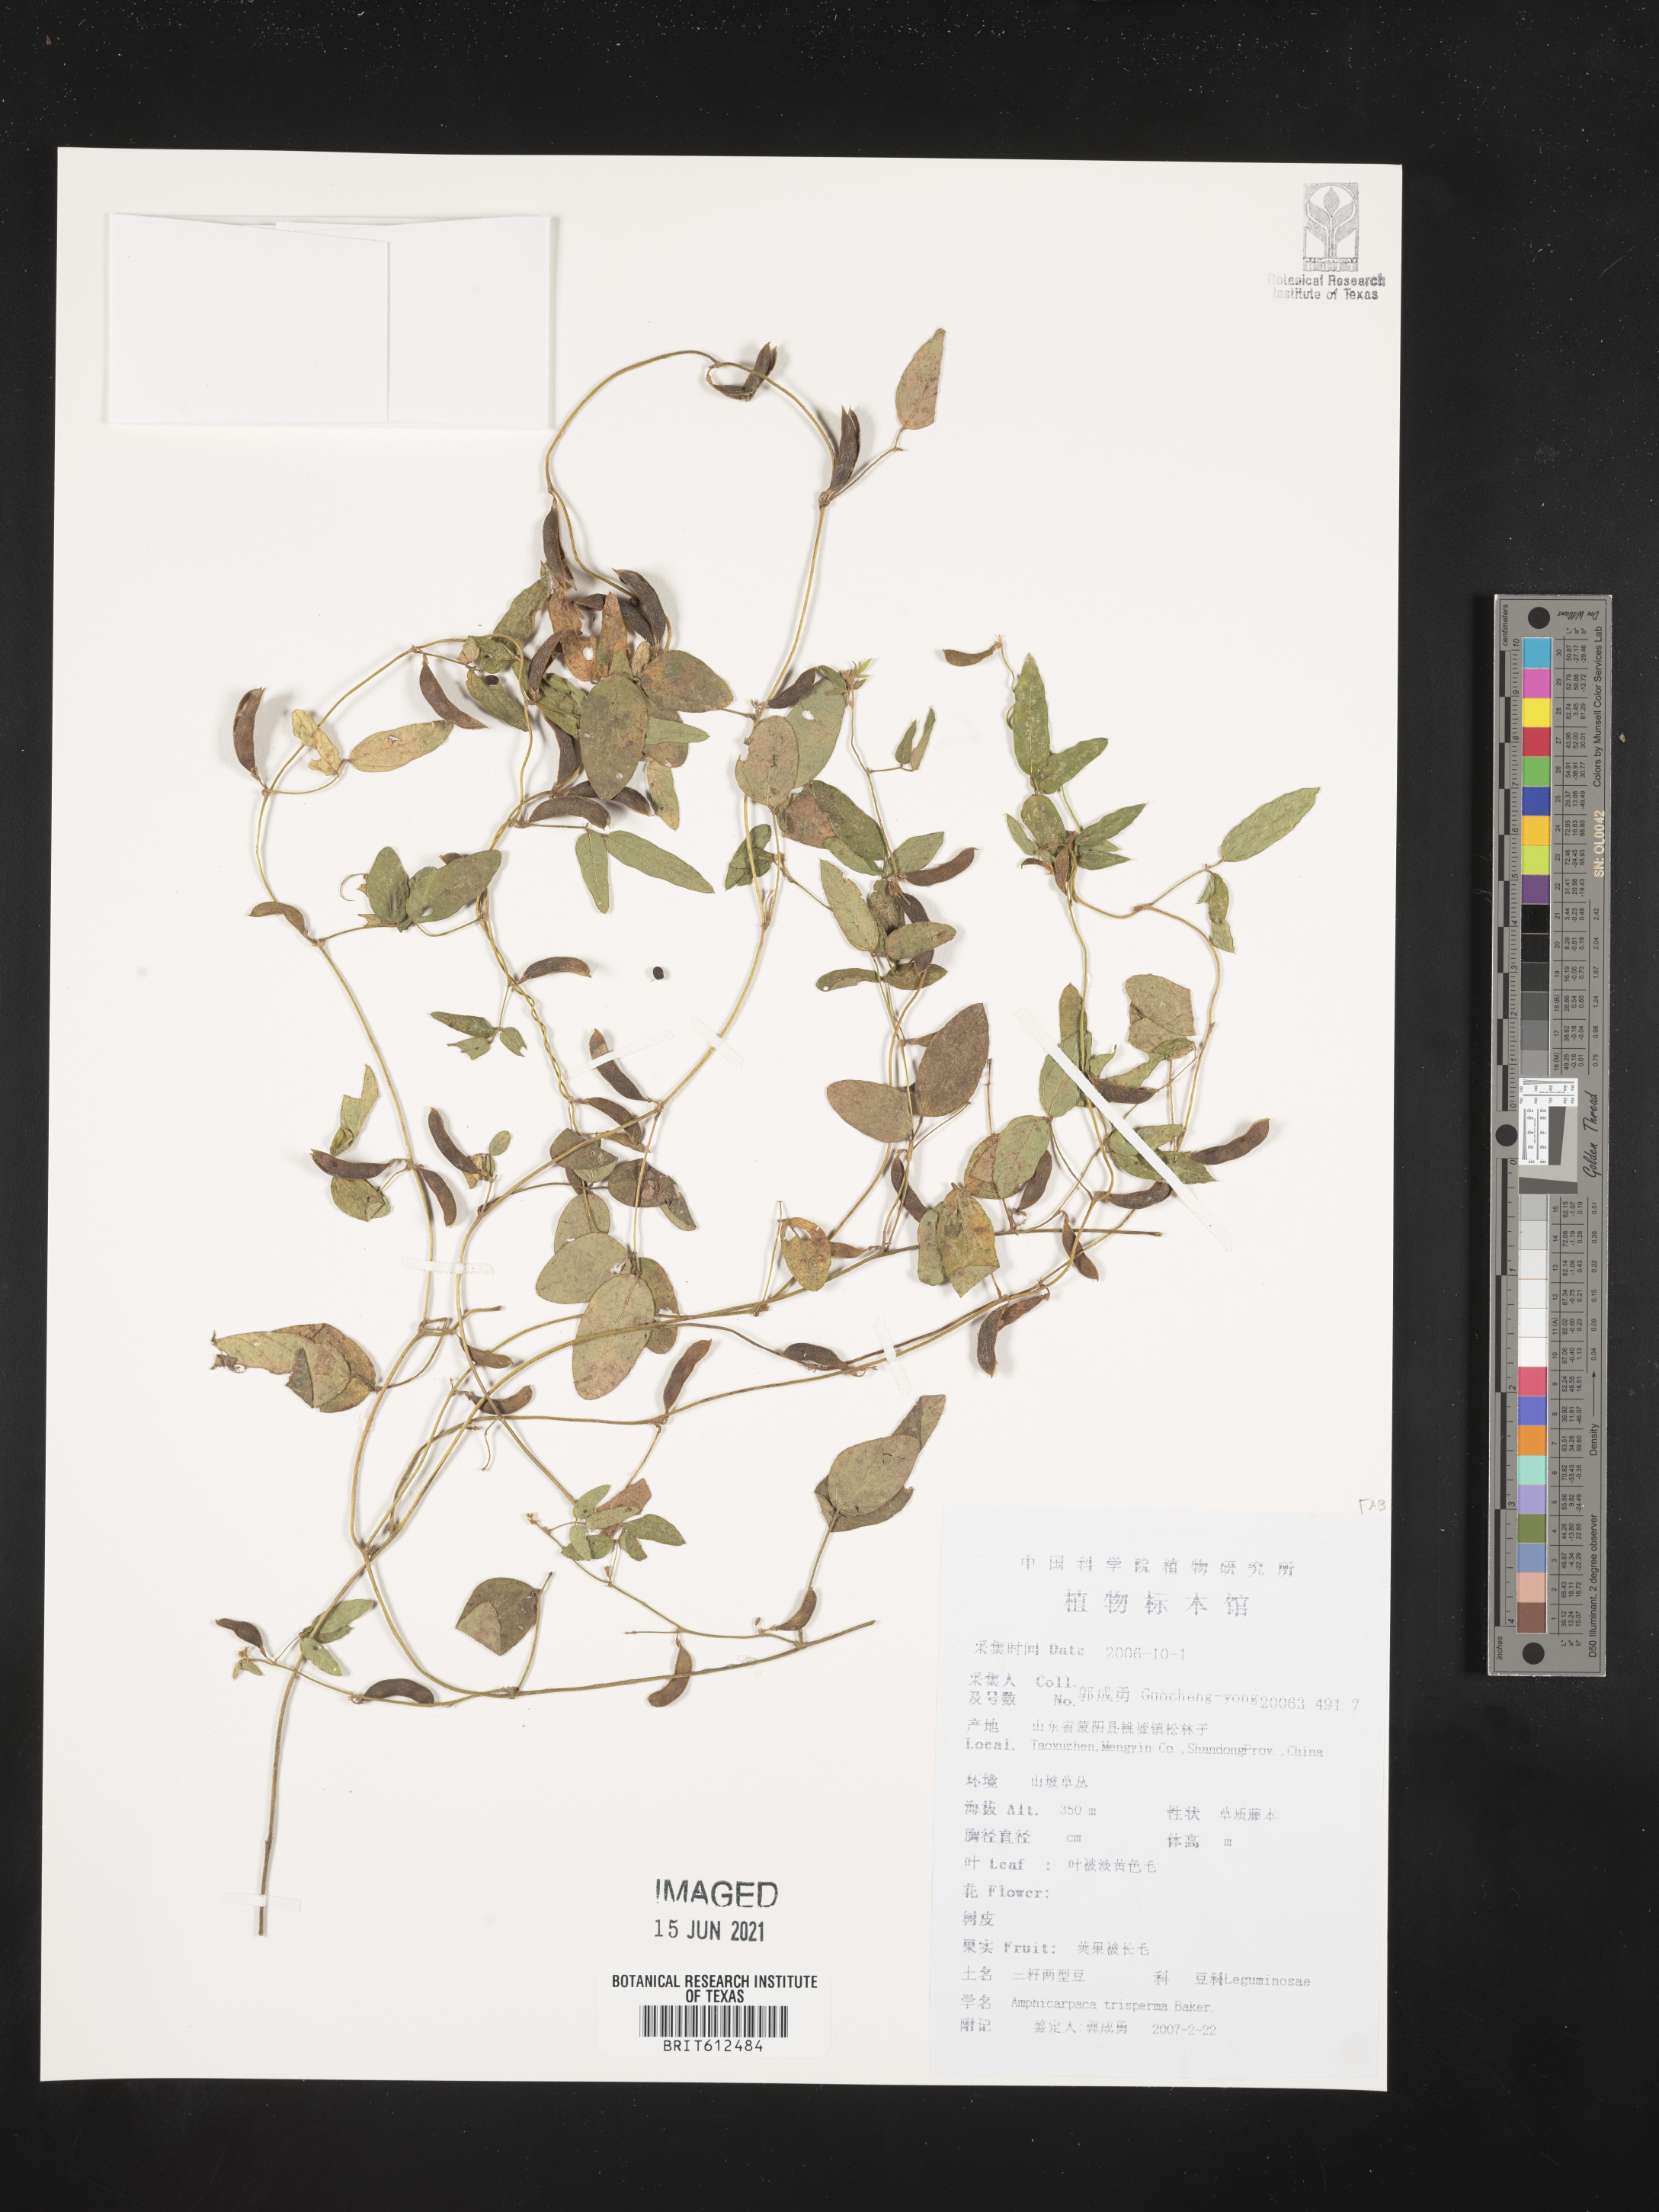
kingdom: Plantae
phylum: Tracheophyta
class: Magnoliopsida
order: Fabales
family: Fabaceae
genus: Amphicarpaea
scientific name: Amphicarpaea edgeworthii
